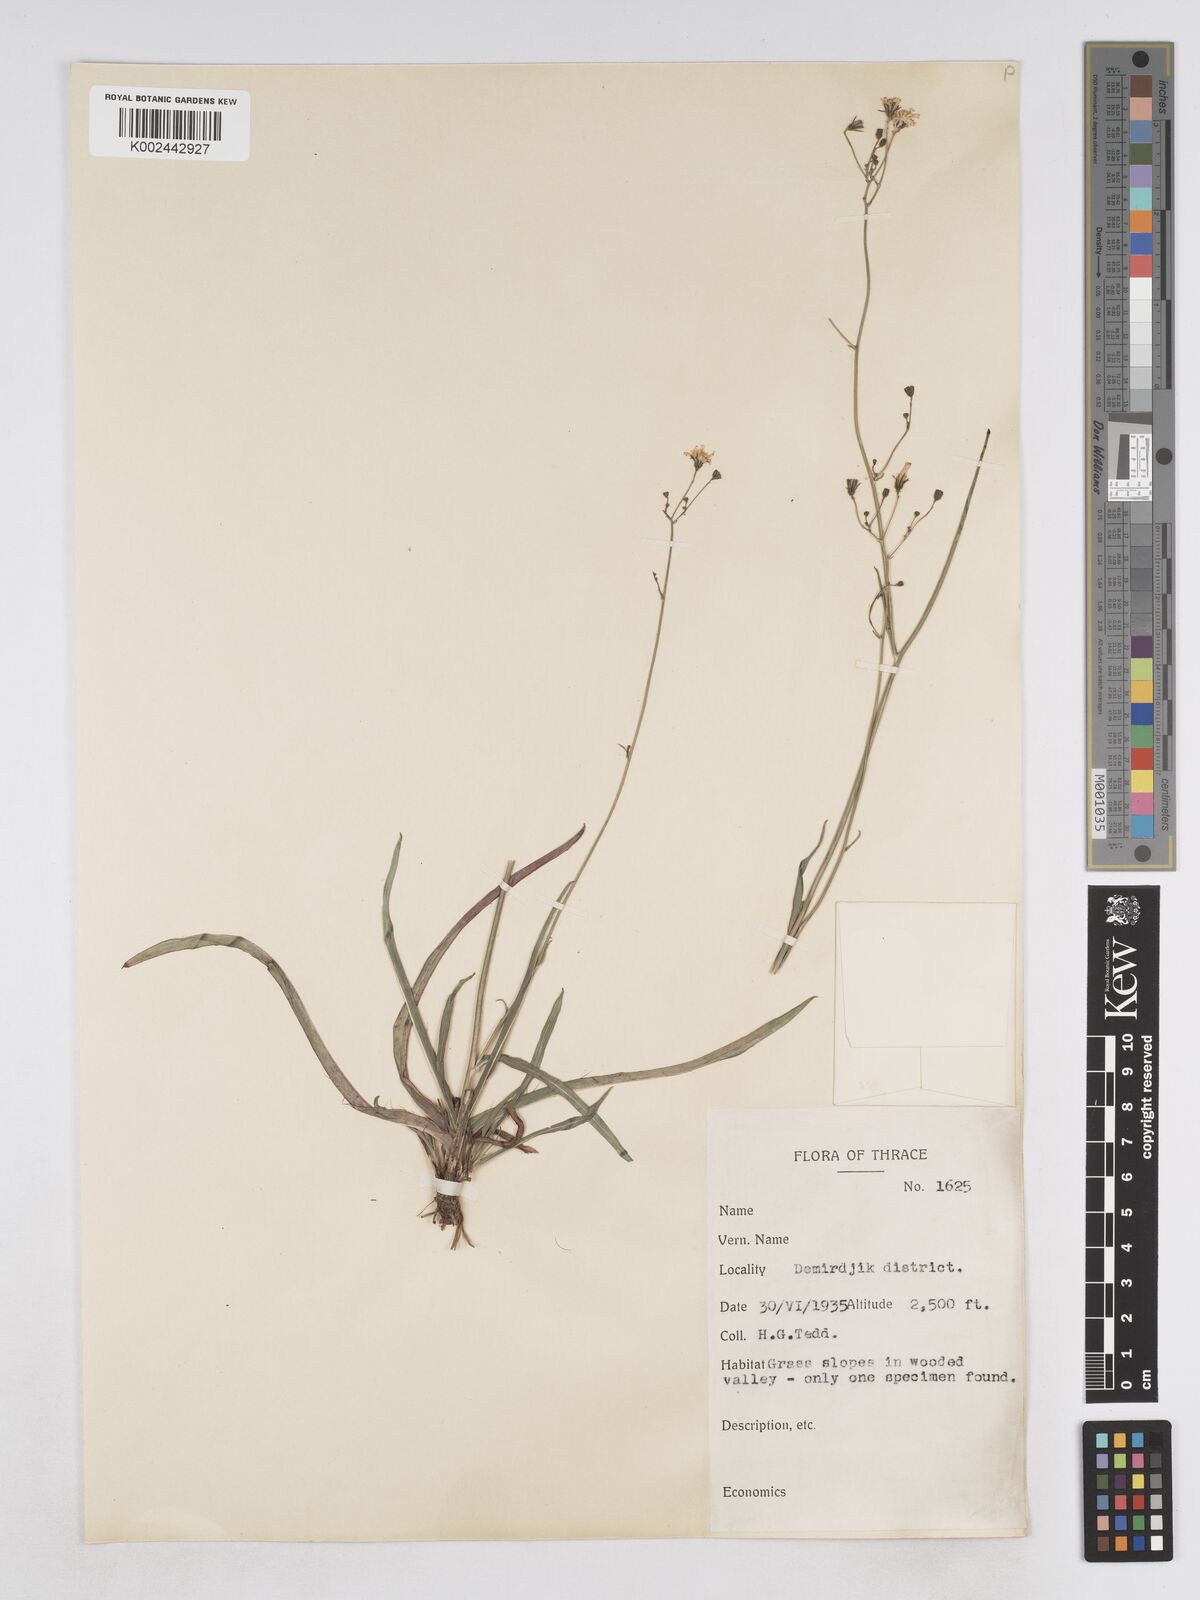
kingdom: Plantae
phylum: Tracheophyta
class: Magnoliopsida
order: Asterales
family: Asteraceae
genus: Pilosella
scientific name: Pilosella pavichii
